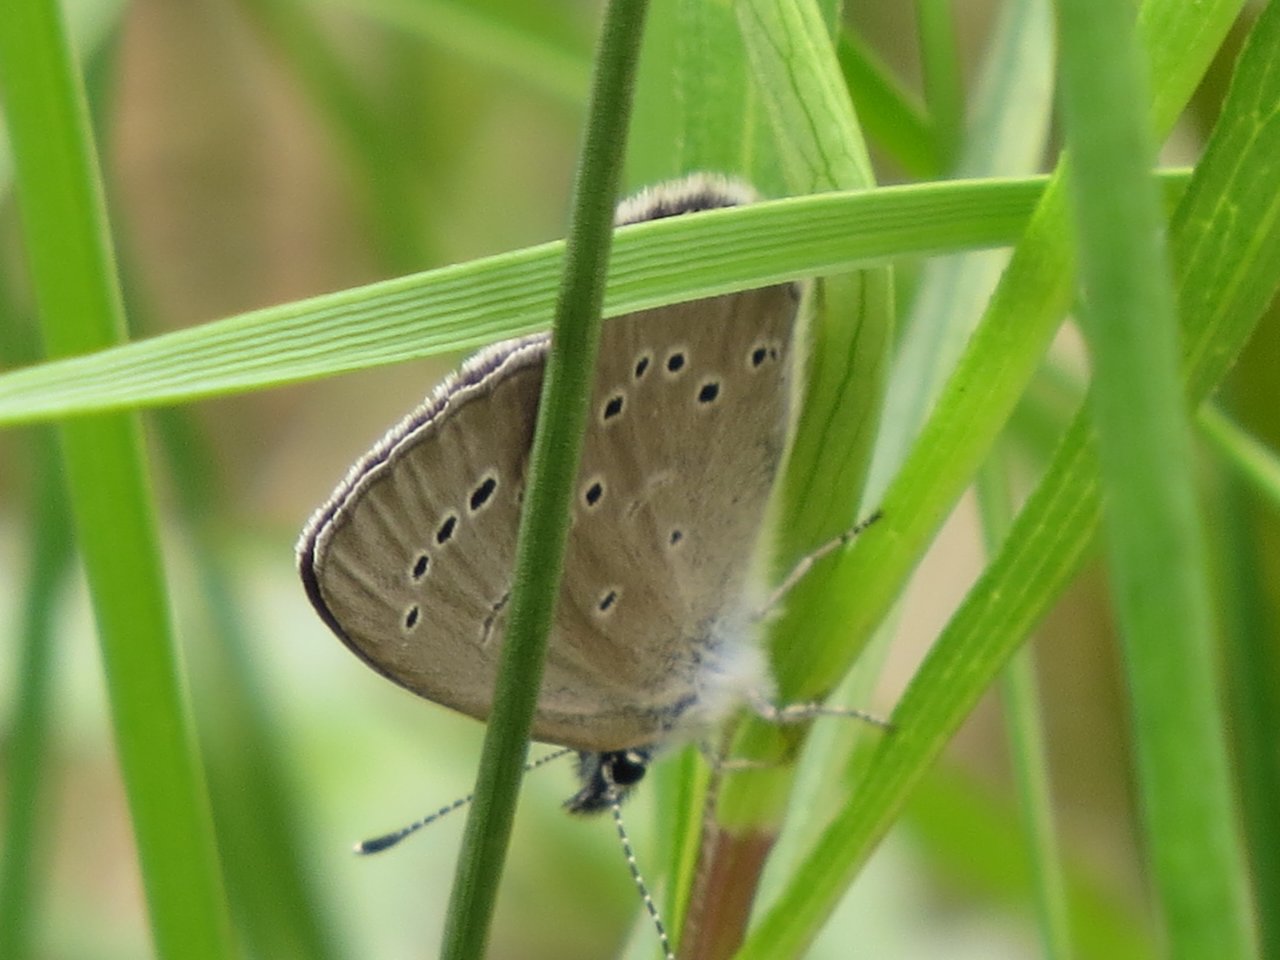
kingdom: Animalia
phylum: Arthropoda
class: Insecta
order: Lepidoptera
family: Lycaenidae
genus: Glaucopsyche
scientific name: Glaucopsyche lygdamus
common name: Silvery Blue
